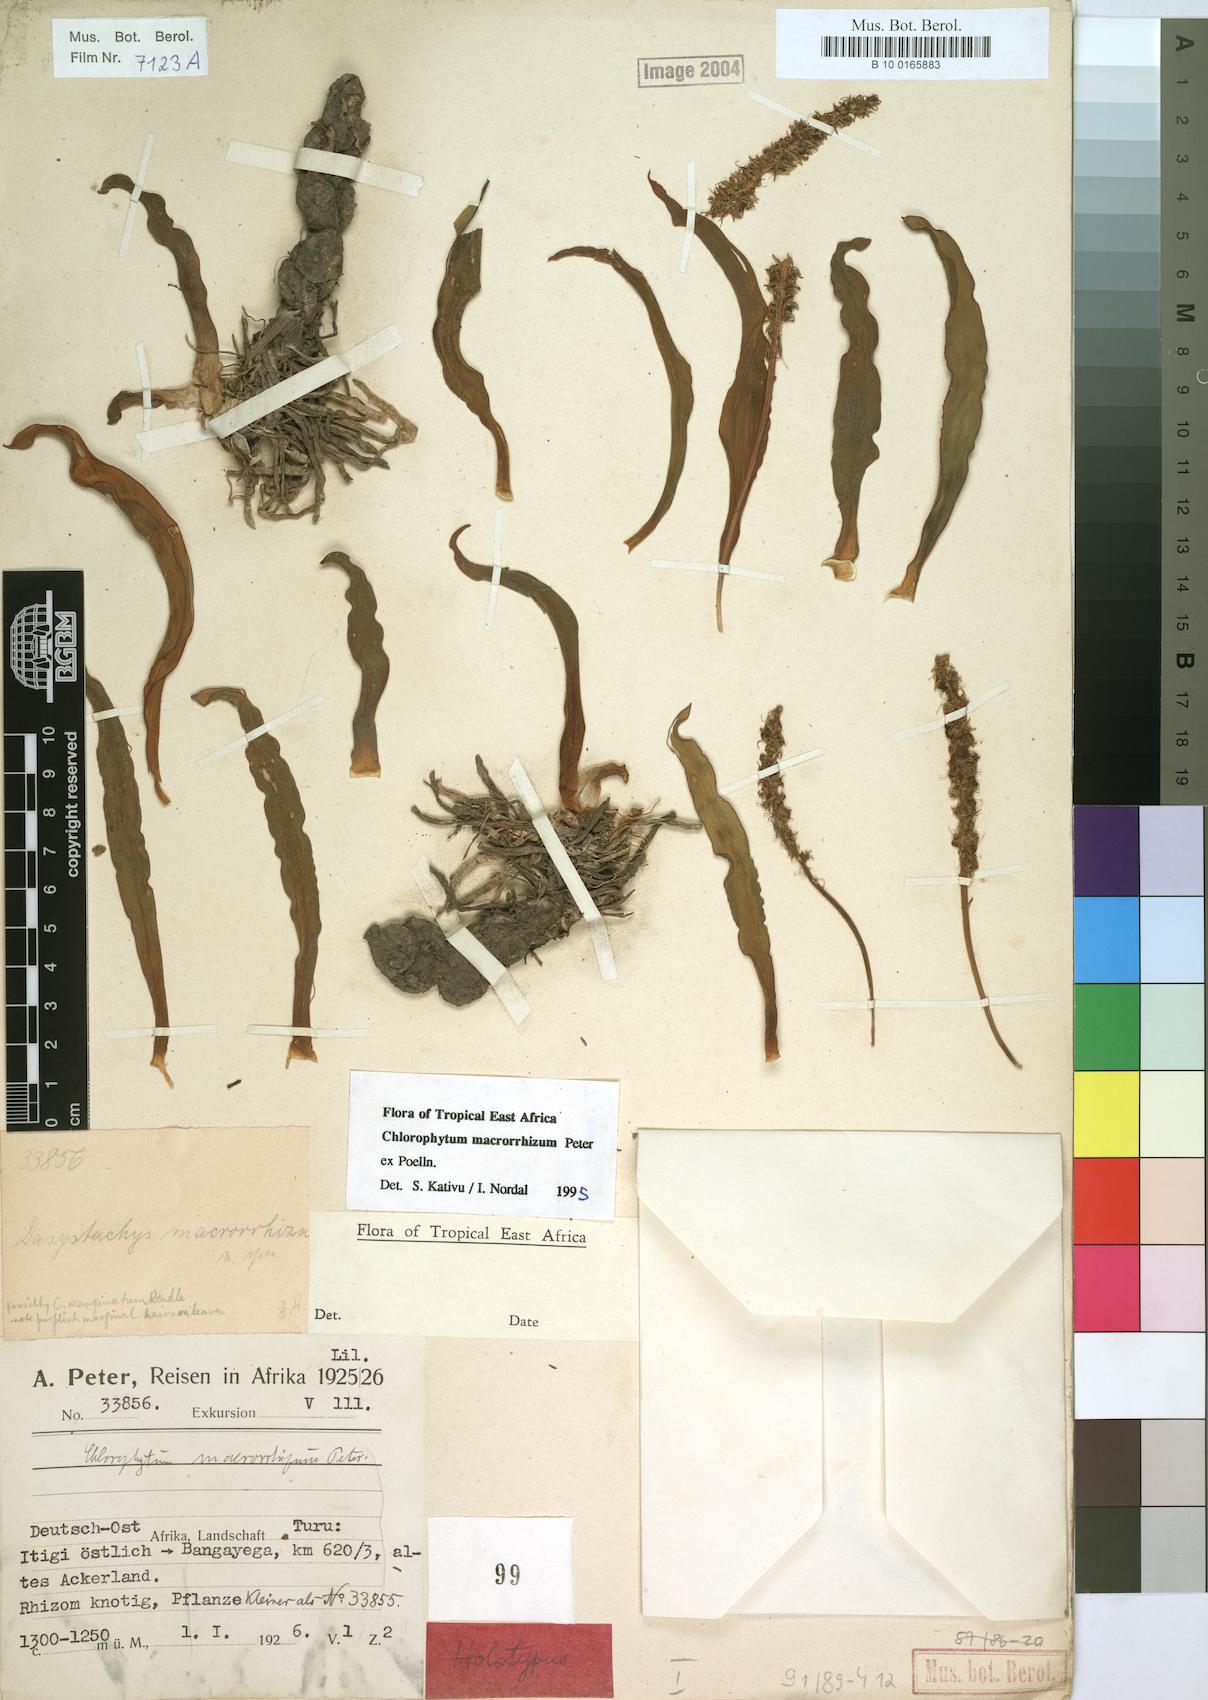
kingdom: Plantae
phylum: Tracheophyta
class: Liliopsida
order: Asparagales
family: Asparagaceae
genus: Chlorophytum
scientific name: Chlorophytum macrorrhizum
